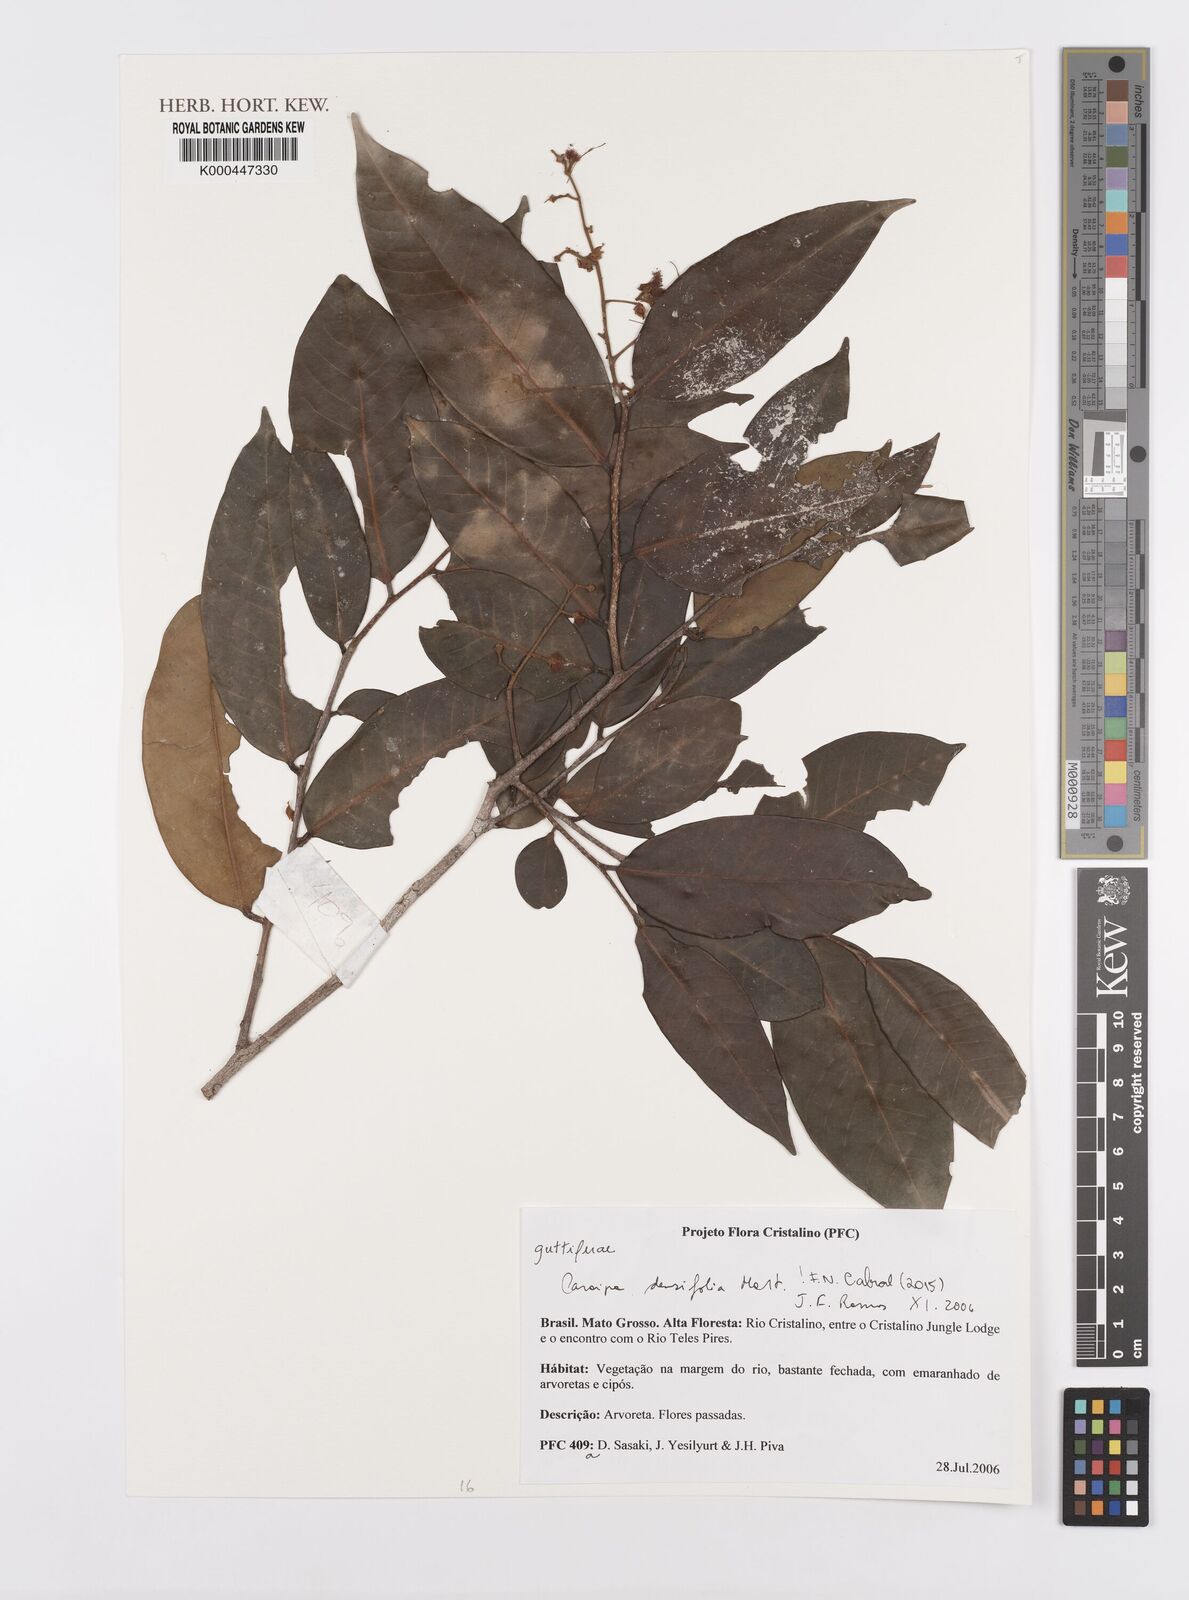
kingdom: Plantae
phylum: Tracheophyta
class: Magnoliopsida
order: Malpighiales
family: Calophyllaceae
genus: Caraipa
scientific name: Caraipa densifolia
